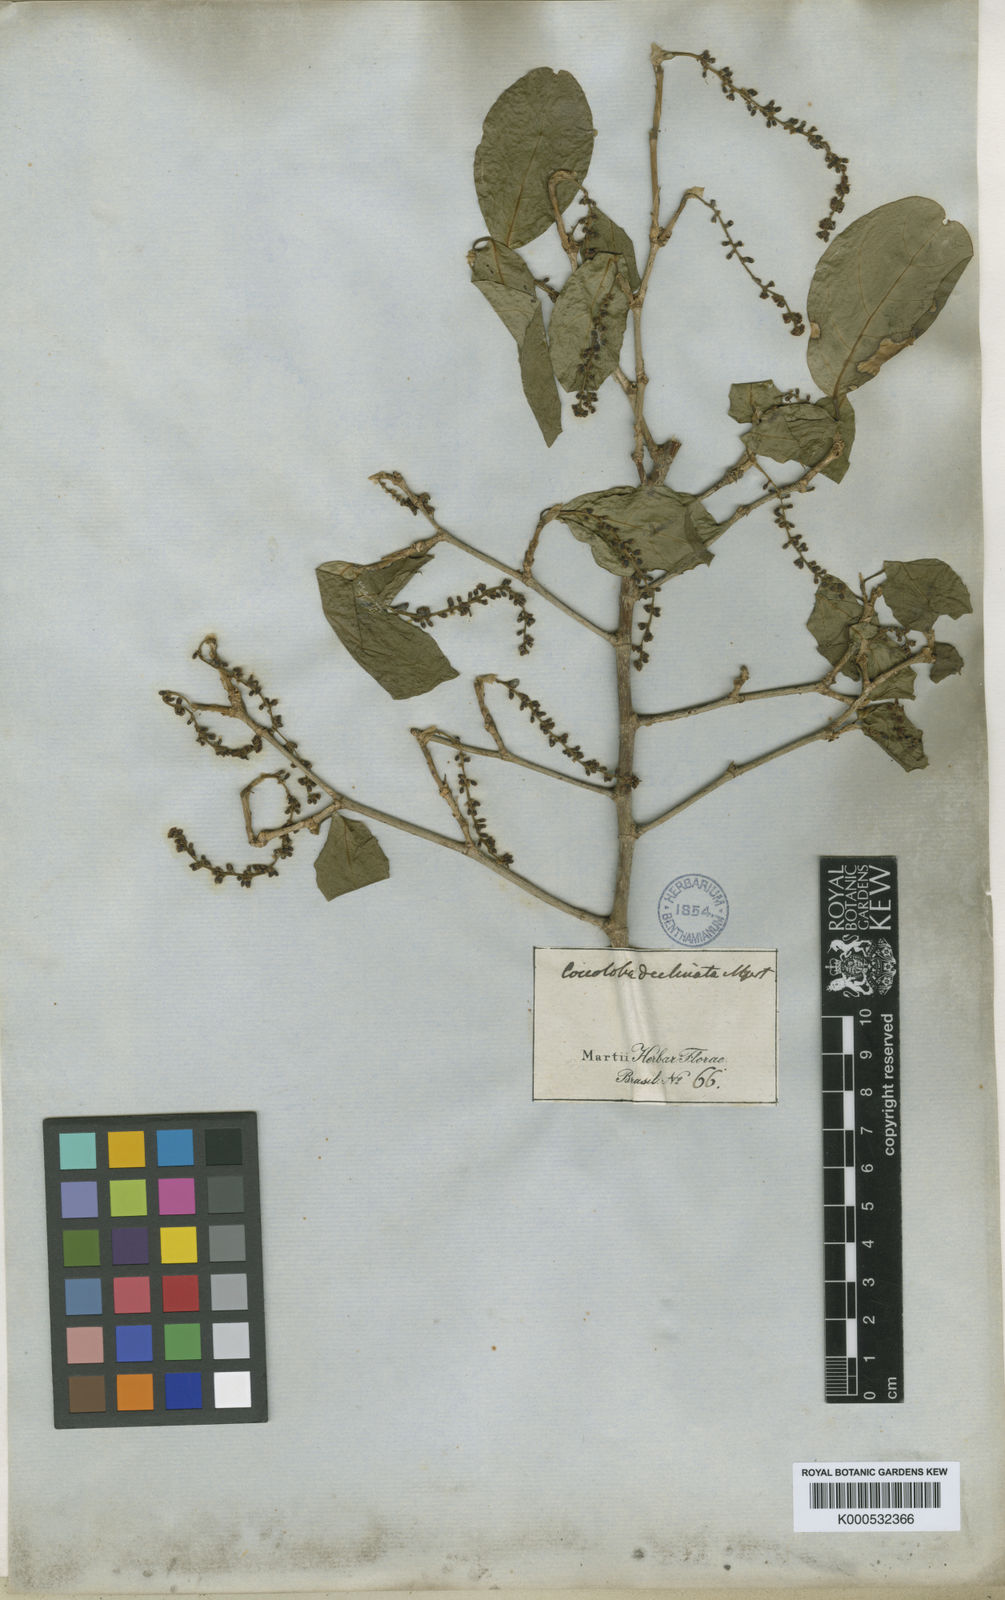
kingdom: Plantae
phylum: Tracheophyta
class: Magnoliopsida
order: Caryophyllales
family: Polygonaceae
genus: Coccoloba
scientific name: Coccoloba declinata
